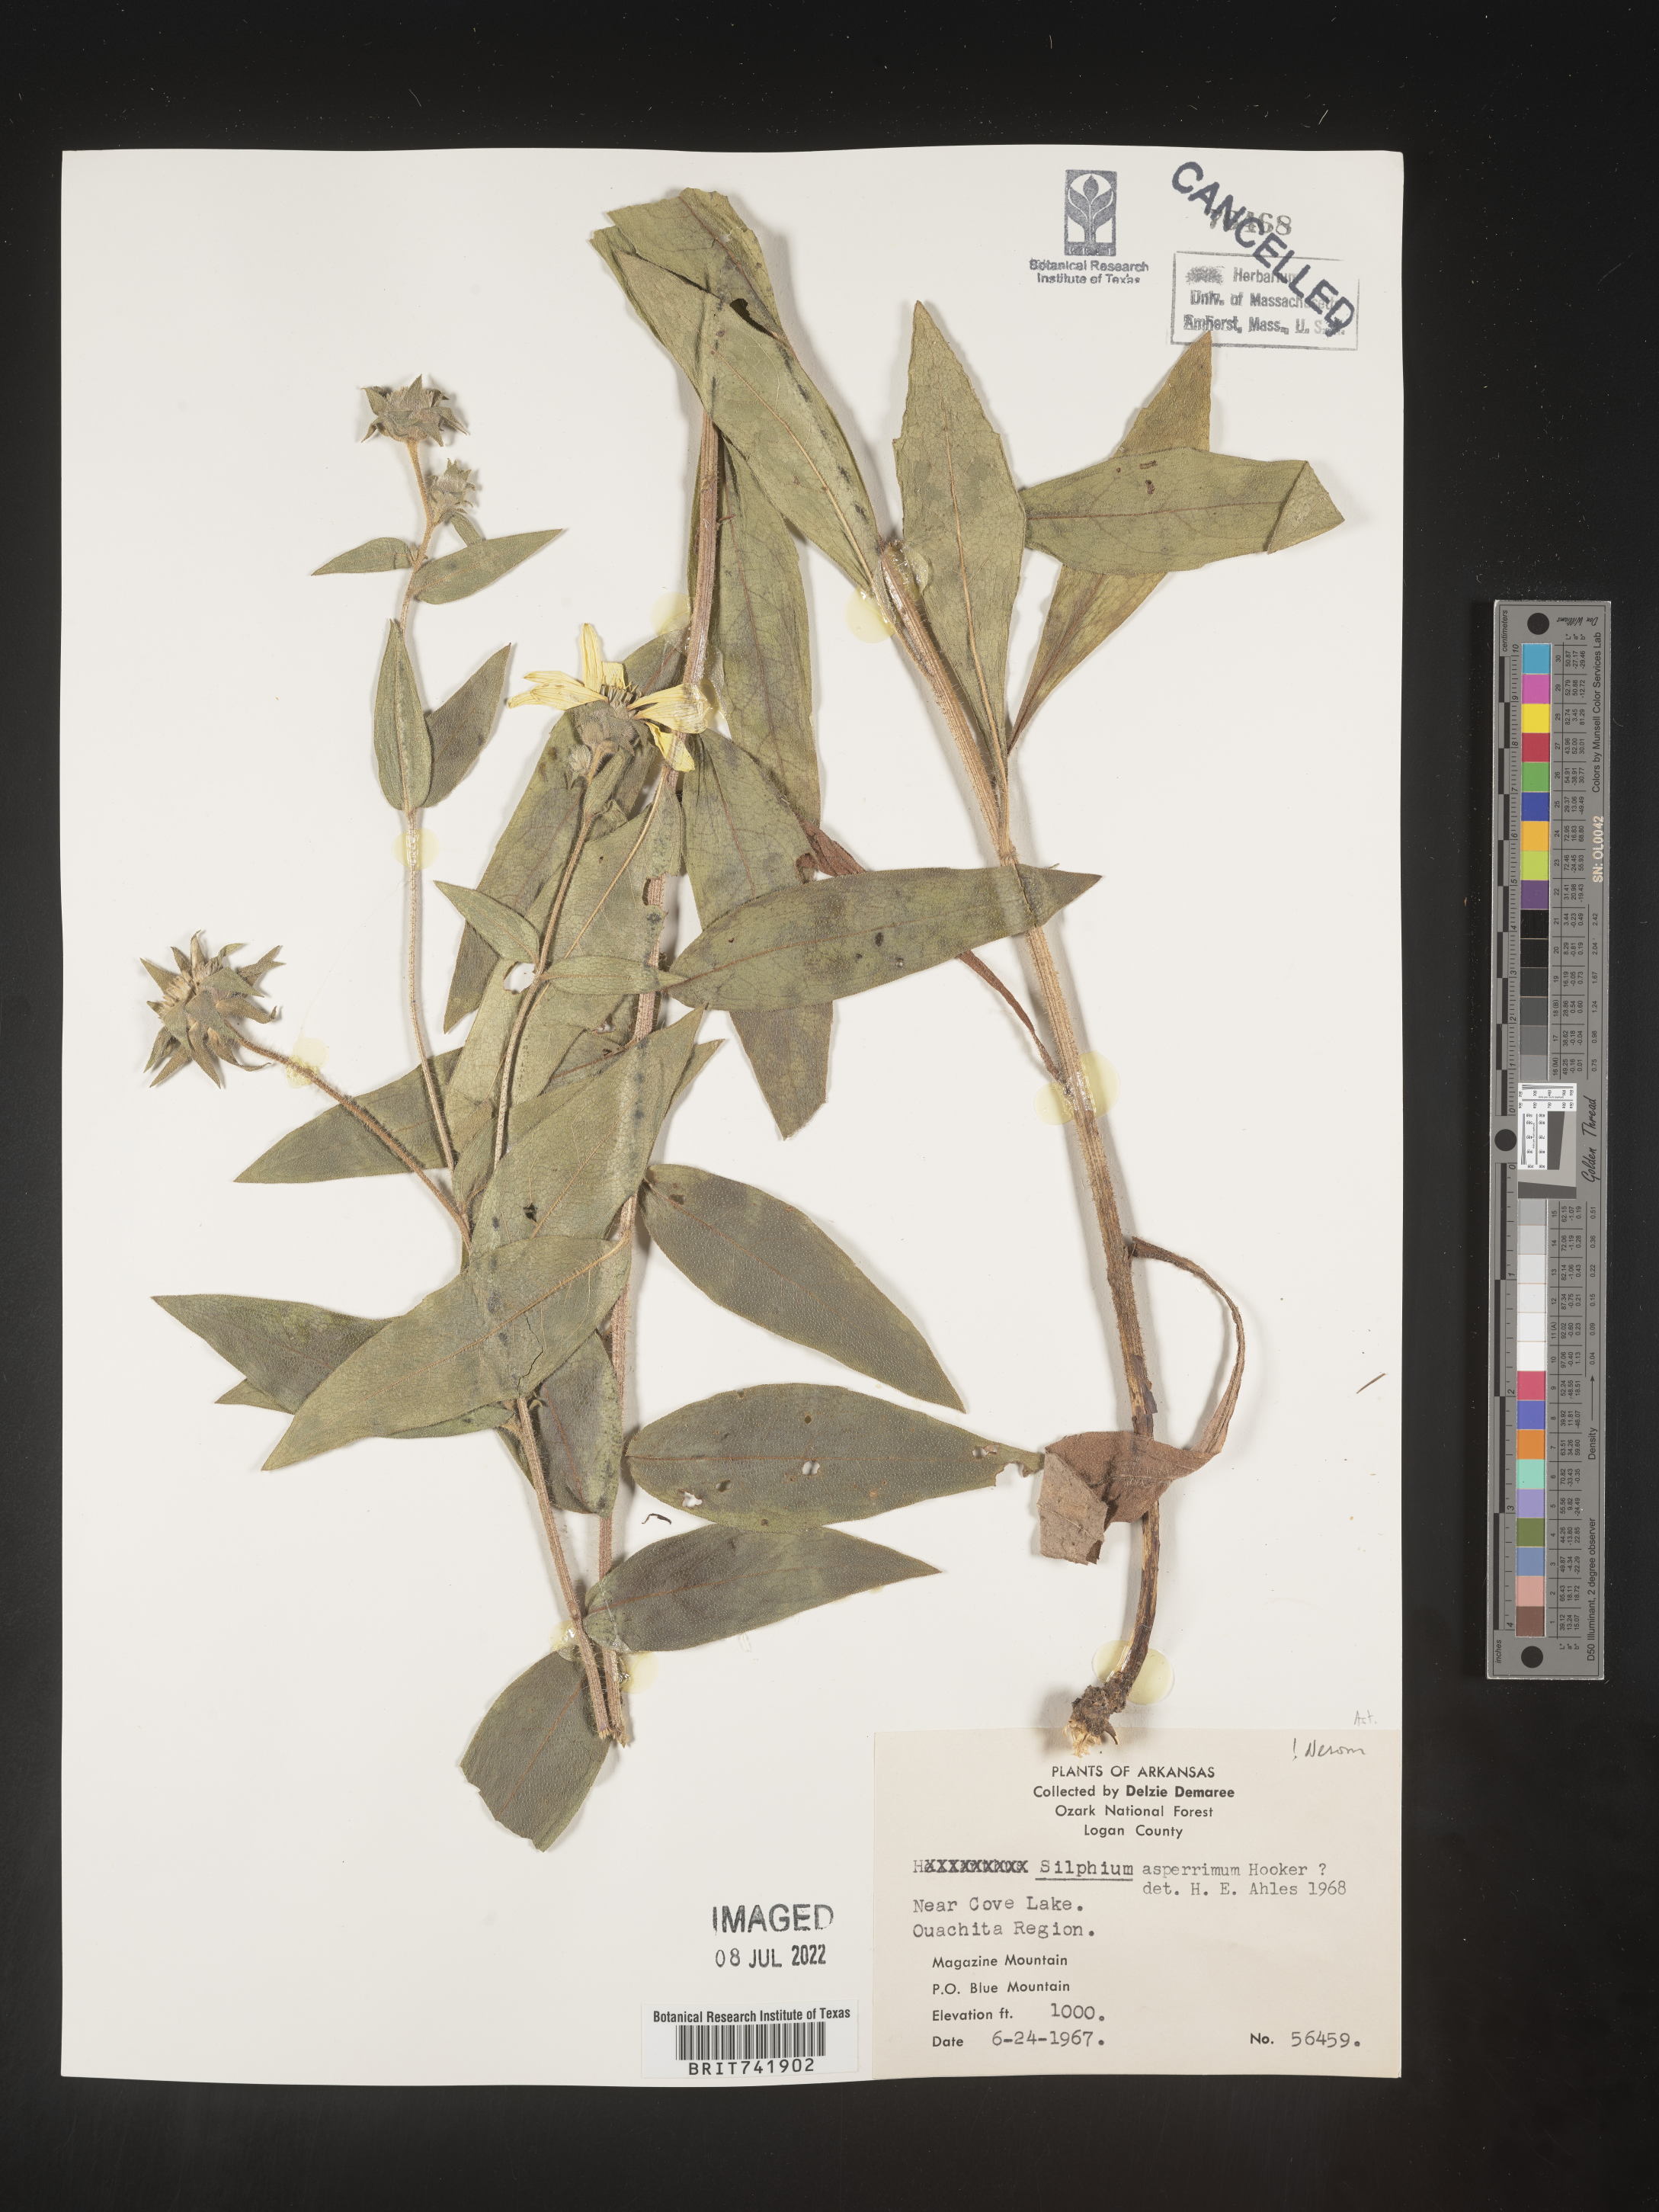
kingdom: Plantae
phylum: Tracheophyta
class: Magnoliopsida
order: Asterales
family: Asteraceae
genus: Silphium
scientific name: Silphium asperrimum
